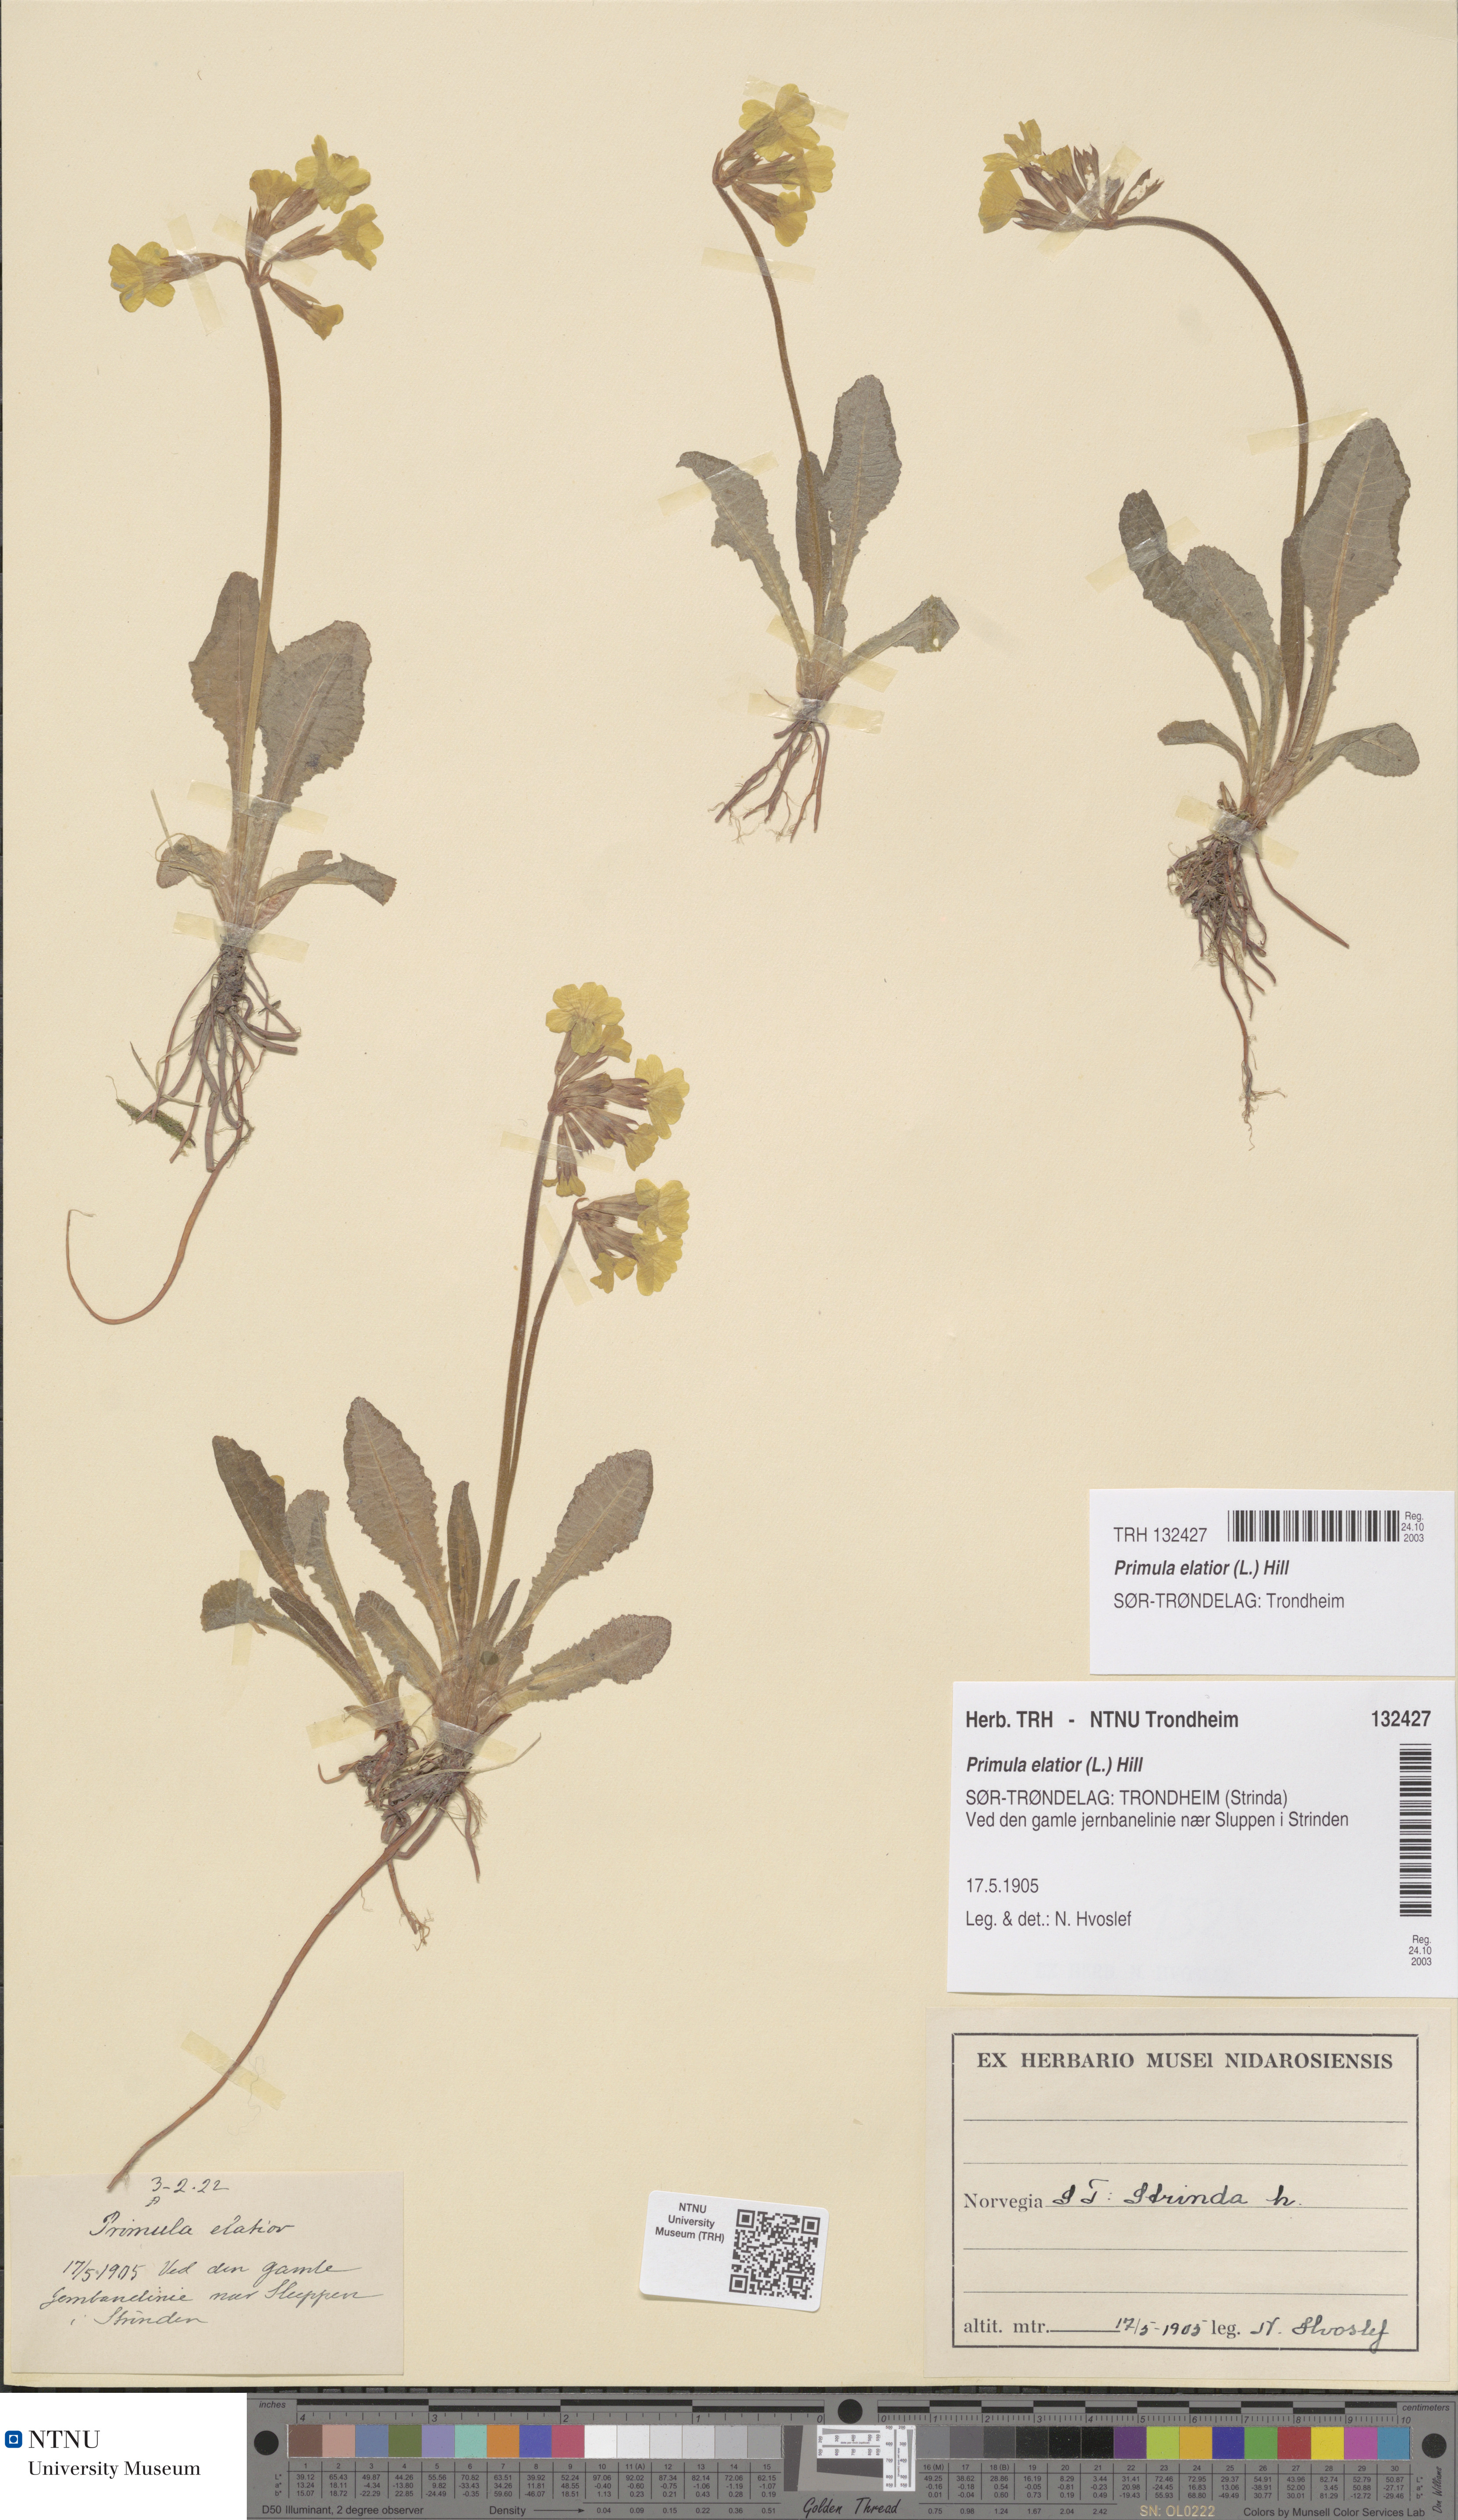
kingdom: Plantae
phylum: Tracheophyta
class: Magnoliopsida
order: Ericales
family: Primulaceae
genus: Primula
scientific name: Primula elatior
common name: Oxlip
